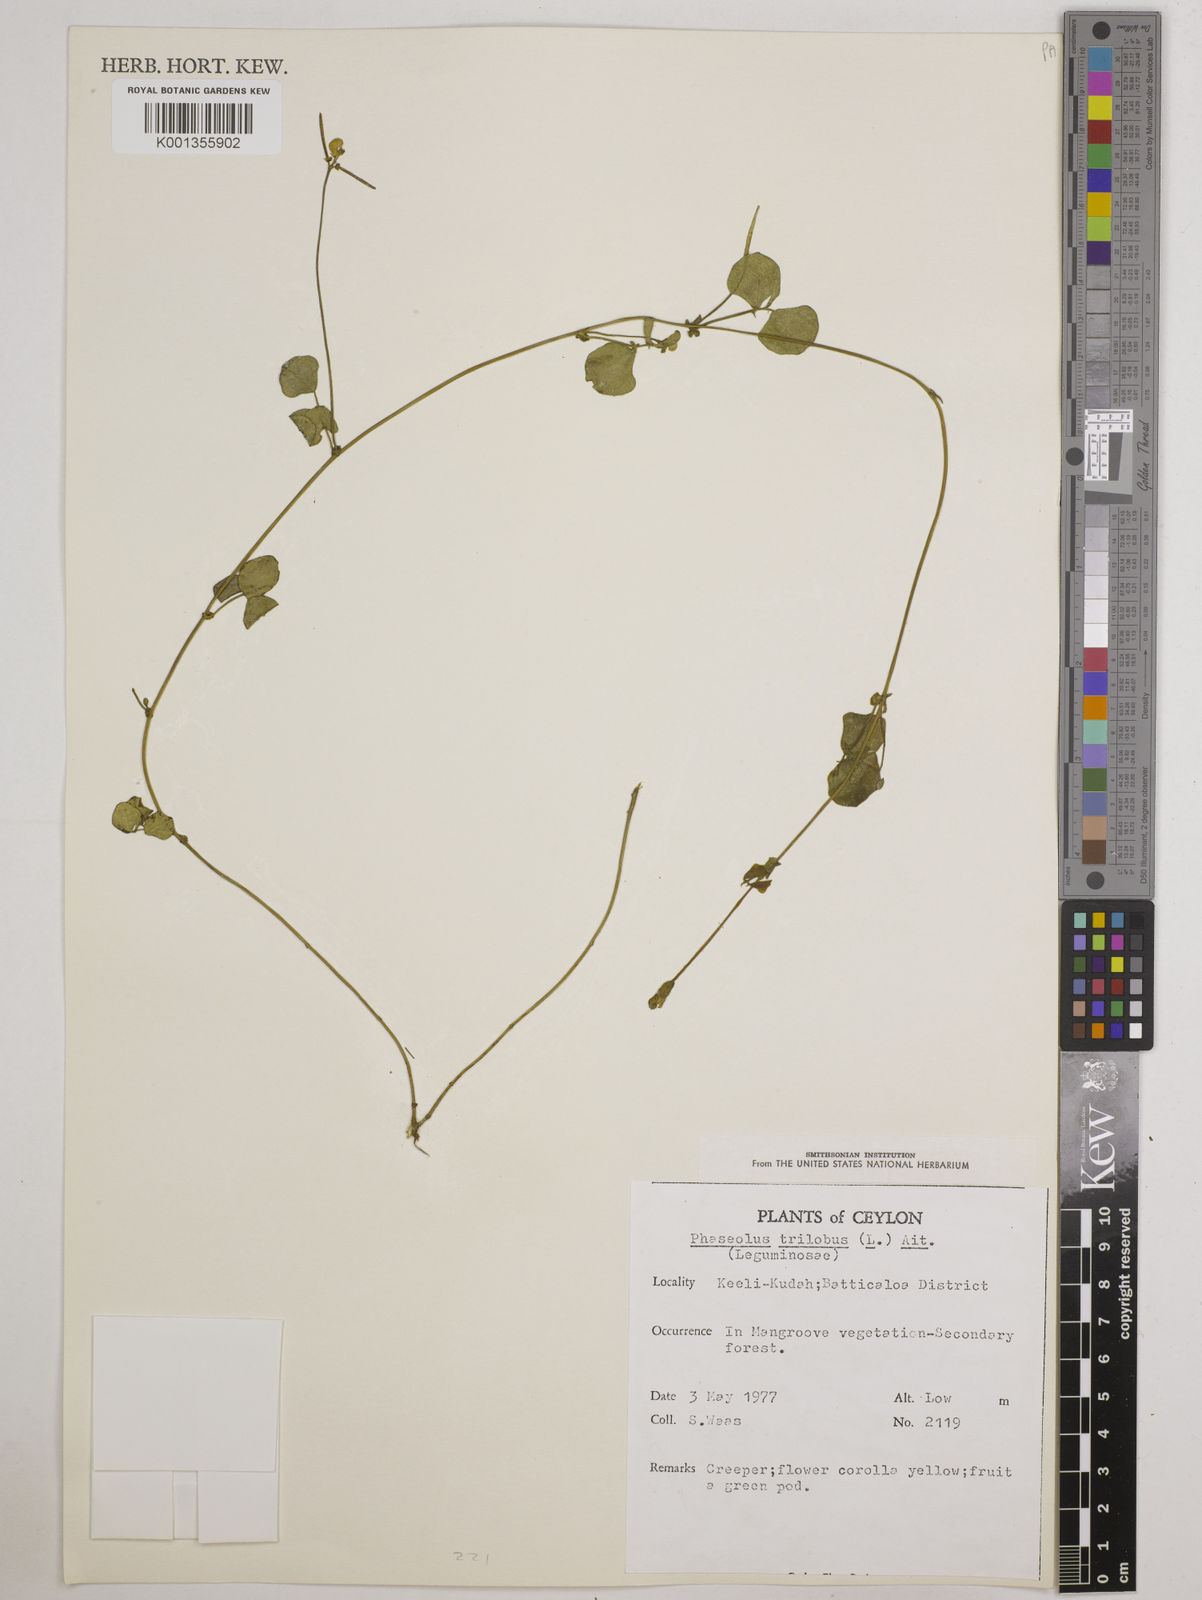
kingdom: Plantae
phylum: Tracheophyta
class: Magnoliopsida
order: Fabales
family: Fabaceae
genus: Vigna
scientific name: Vigna trilobata
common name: Jungli-bean
